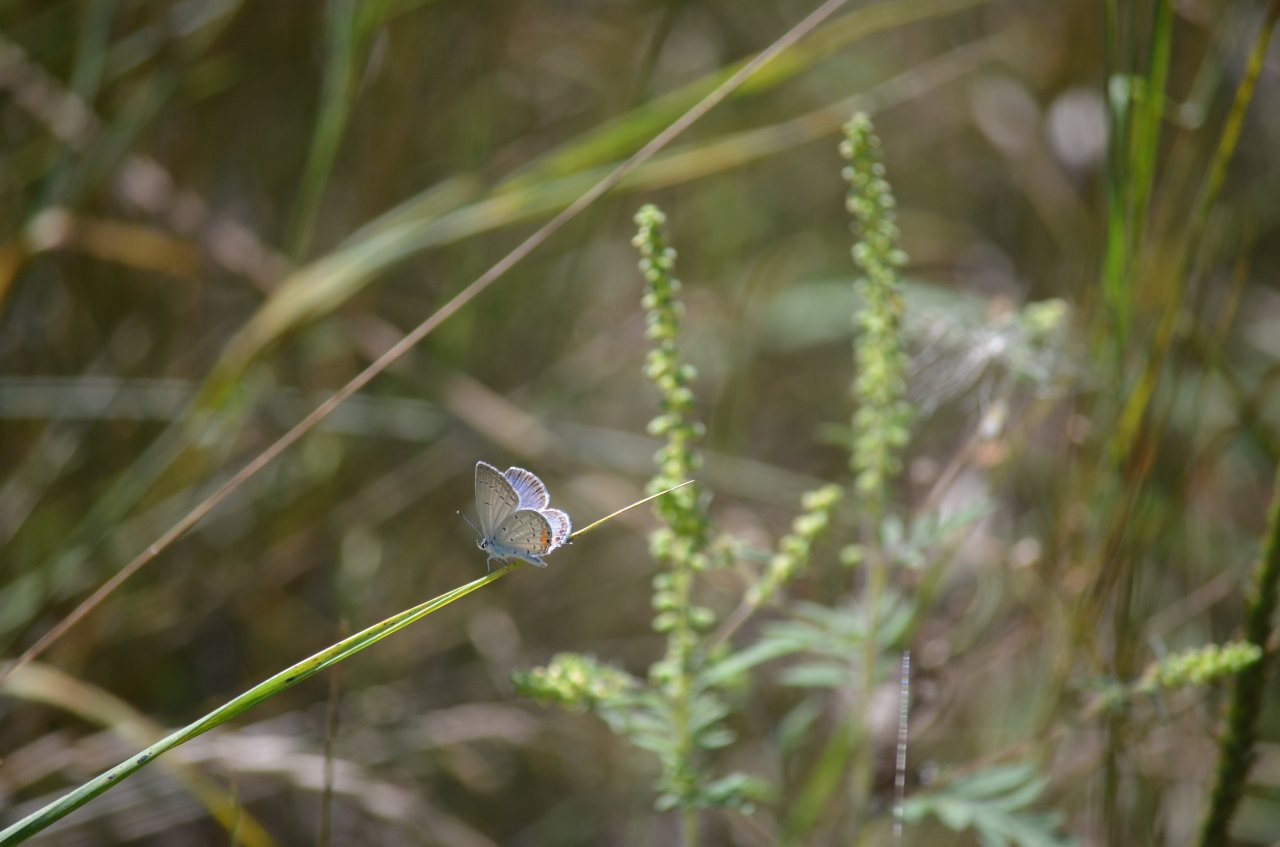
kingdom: Animalia
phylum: Arthropoda
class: Insecta
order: Lepidoptera
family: Lycaenidae
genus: Elkalyce
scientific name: Elkalyce comyntas
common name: Eastern Tailed-Blue
